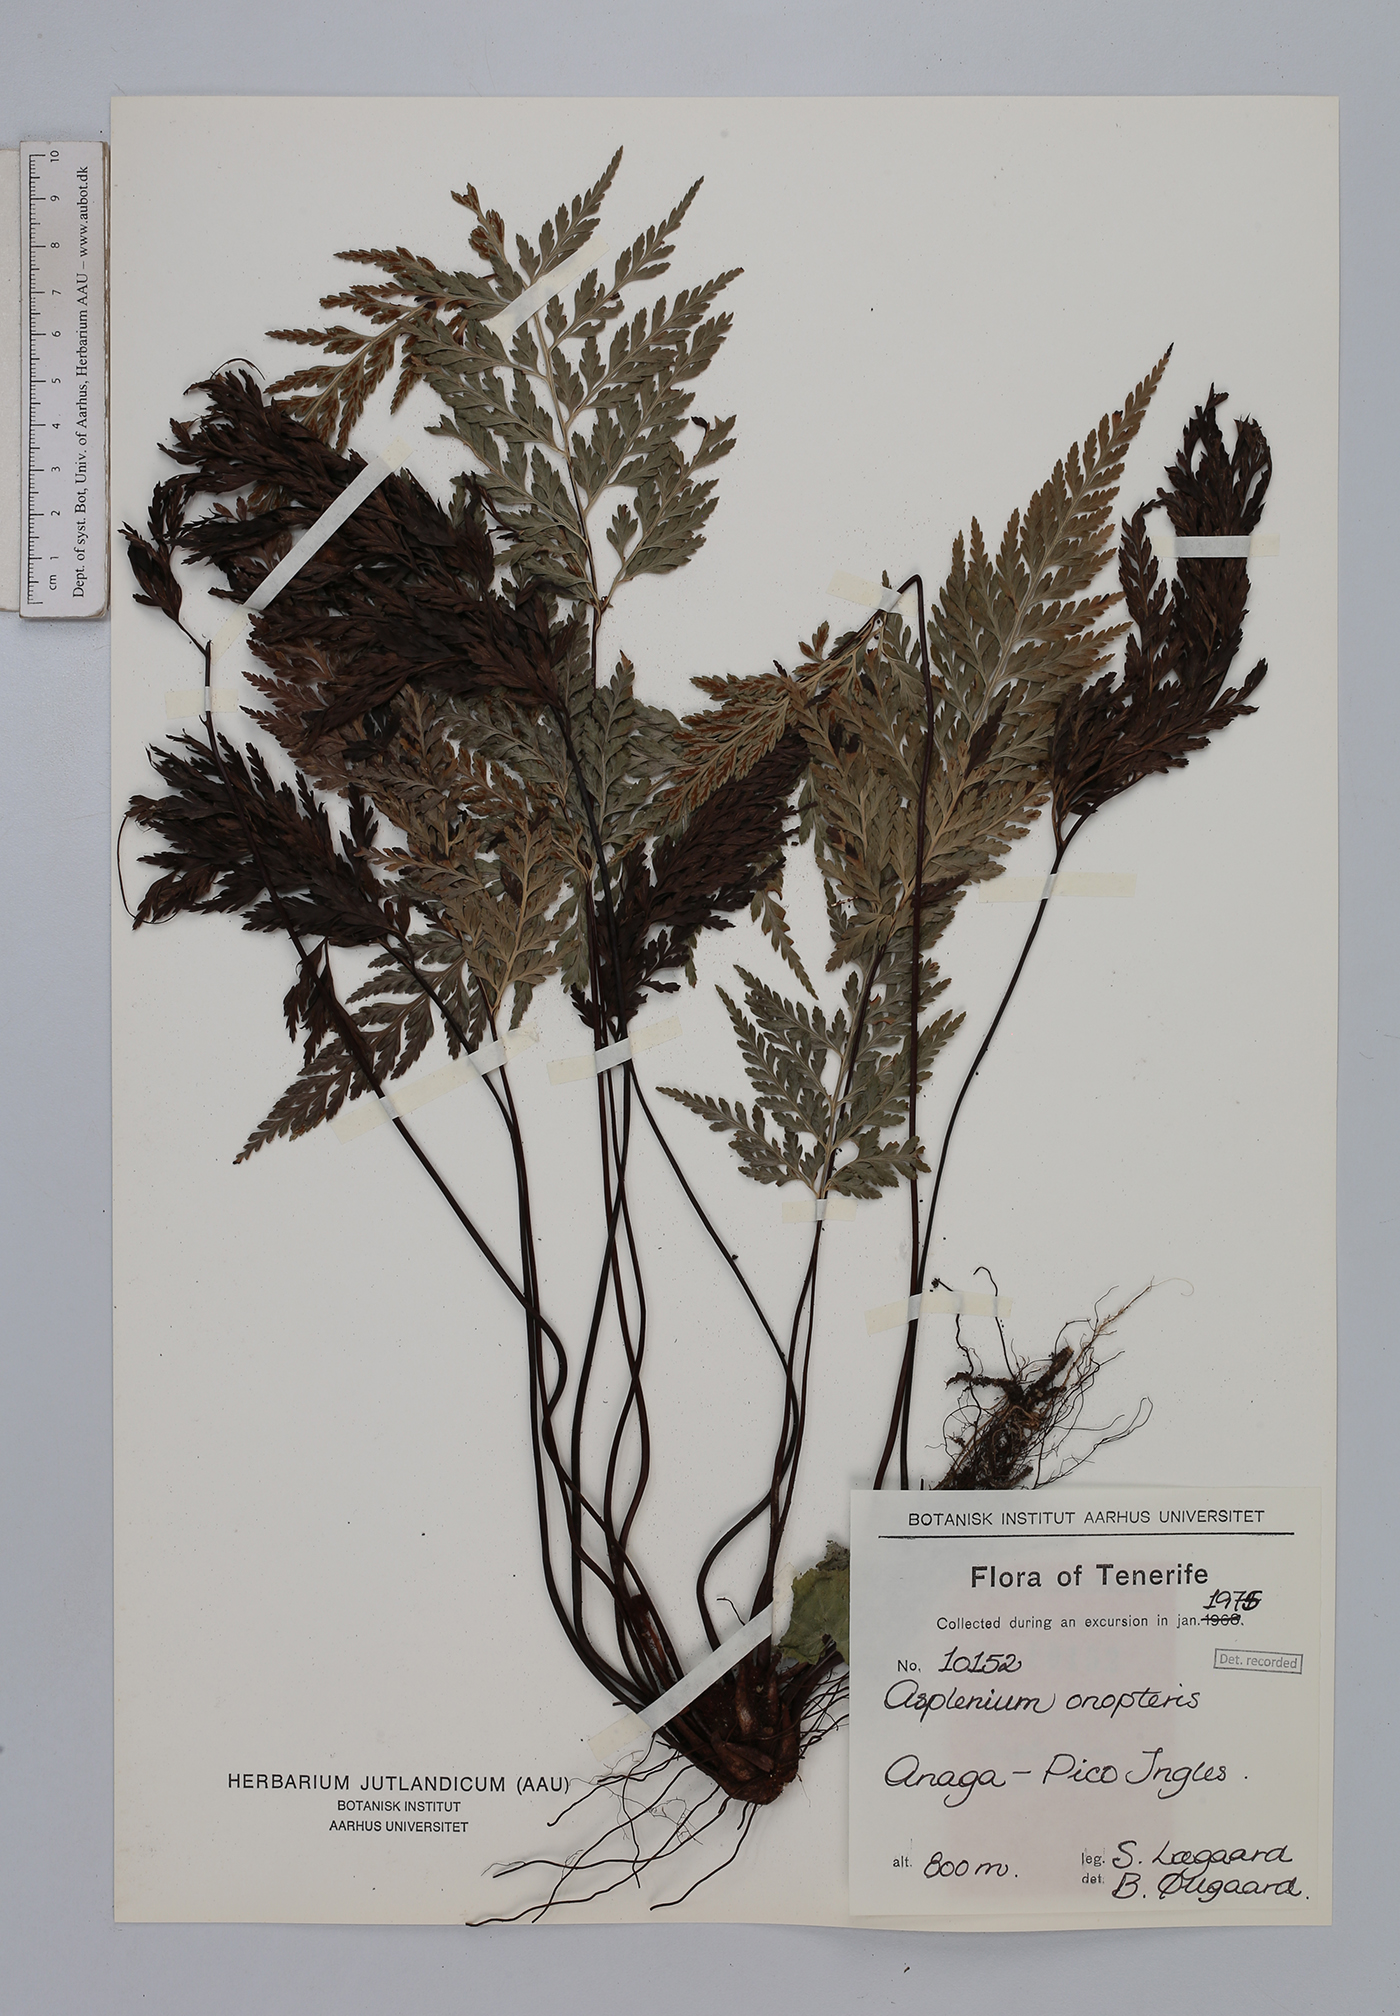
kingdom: Plantae
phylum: Tracheophyta
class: Polypodiopsida
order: Polypodiales
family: Aspleniaceae
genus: Asplenium
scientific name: Asplenium onopteris
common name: Irish spleenwort
